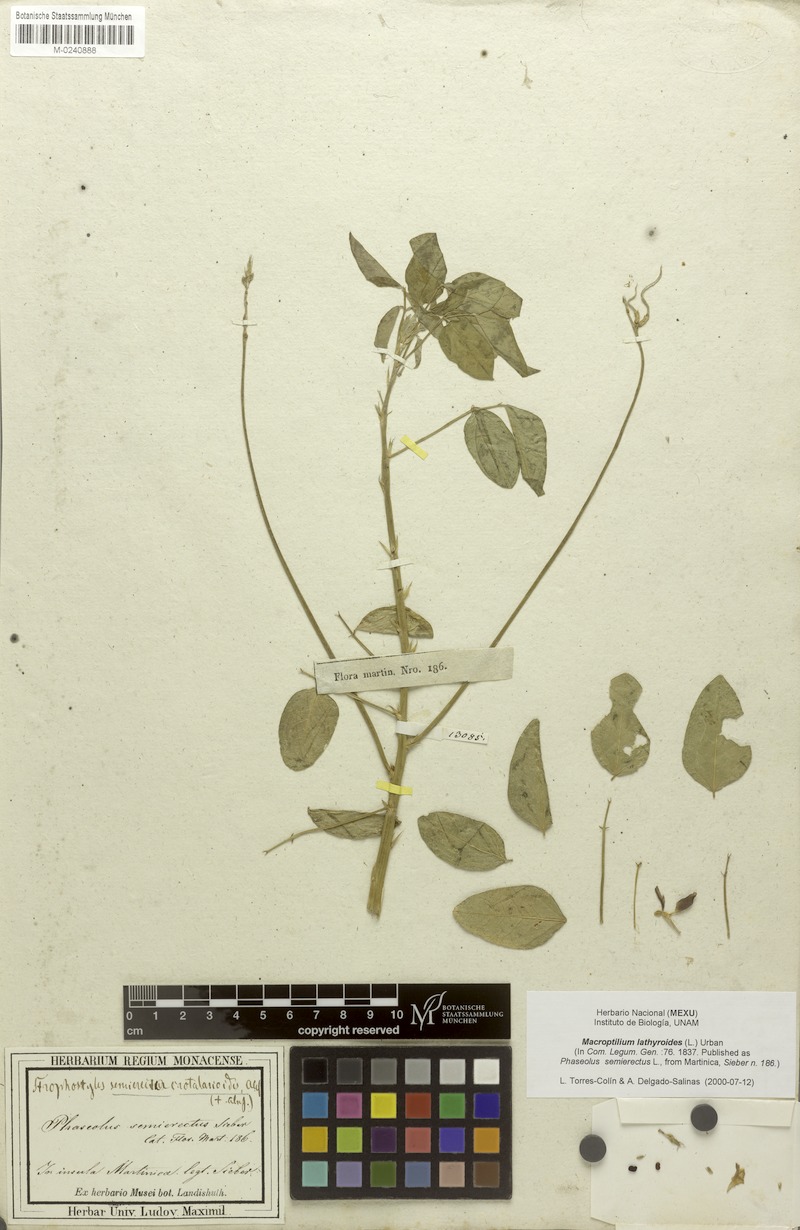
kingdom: Plantae
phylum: Tracheophyta
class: Magnoliopsida
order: Fabales
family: Fabaceae
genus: Macroptilium
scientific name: Macroptilium lathyroides
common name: Wild bushbean
